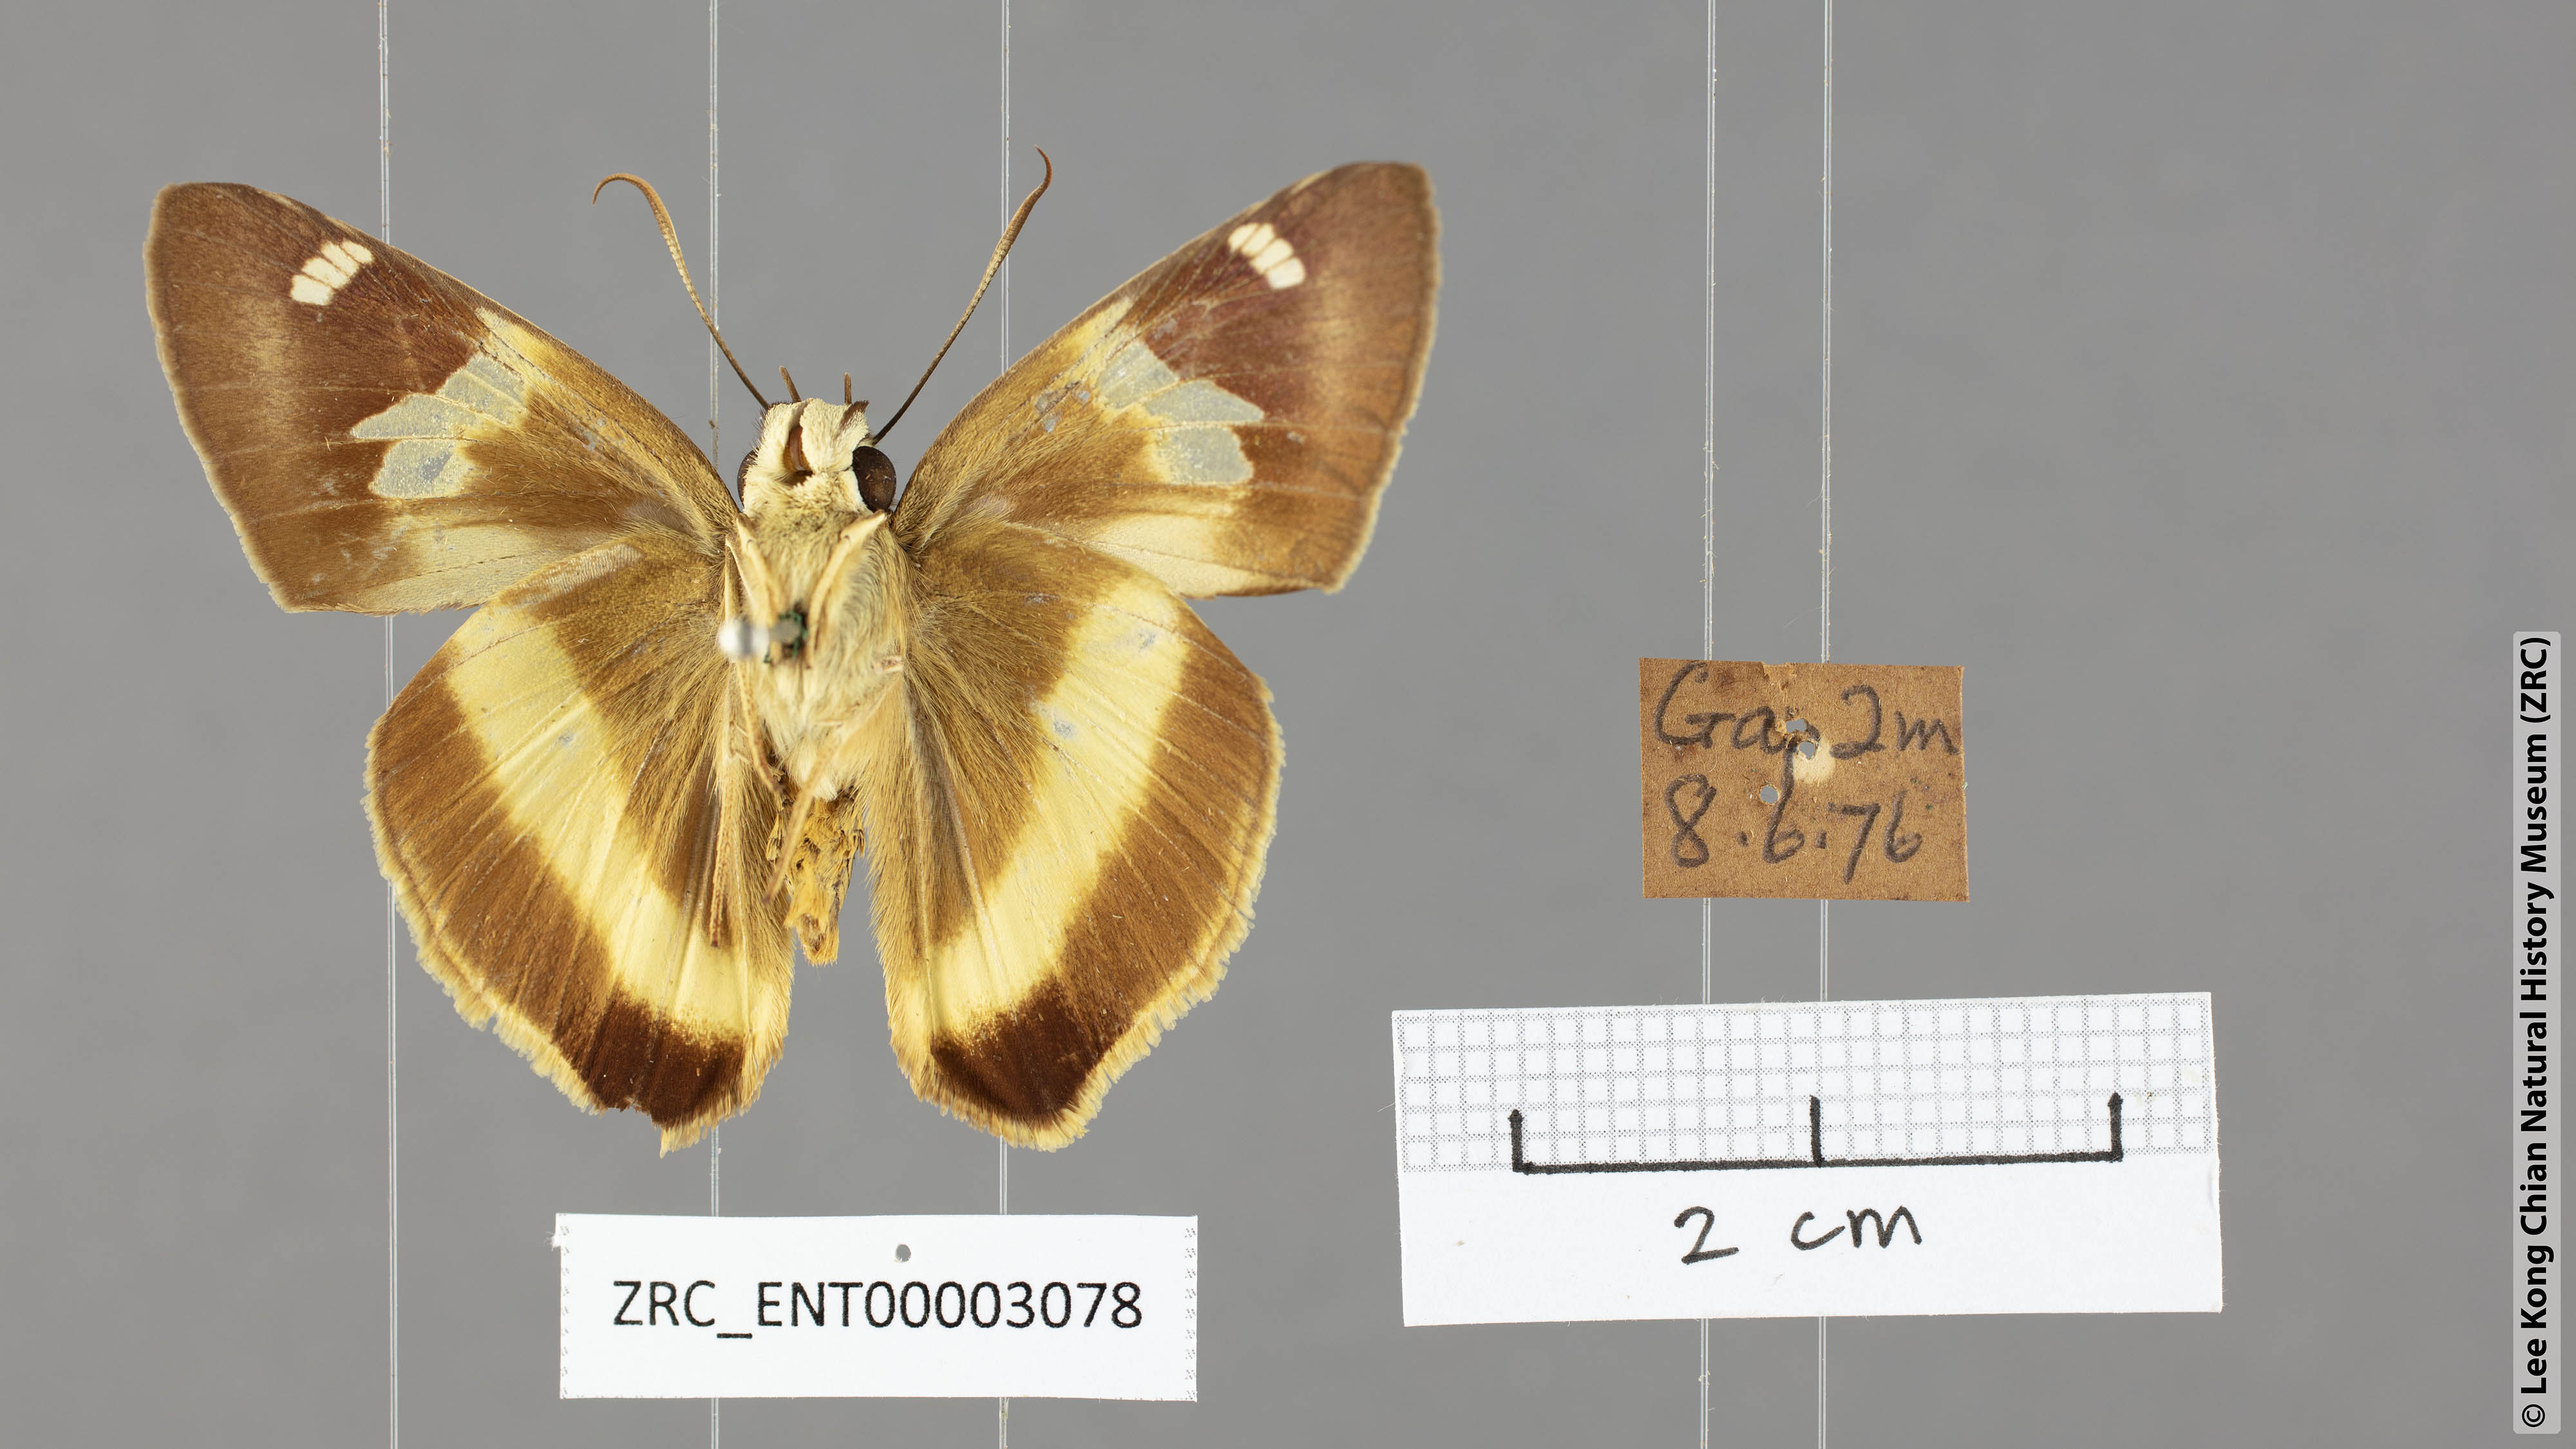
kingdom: Animalia
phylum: Arthropoda
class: Insecta
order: Lepidoptera
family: Hesperiidae
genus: Hasora
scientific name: Hasora schoenherr
